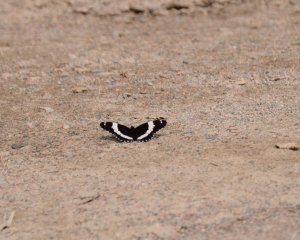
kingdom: Animalia
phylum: Arthropoda
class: Insecta
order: Lepidoptera
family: Nymphalidae
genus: Limenitis
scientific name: Limenitis arthemis
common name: Red-spotted Admiral
